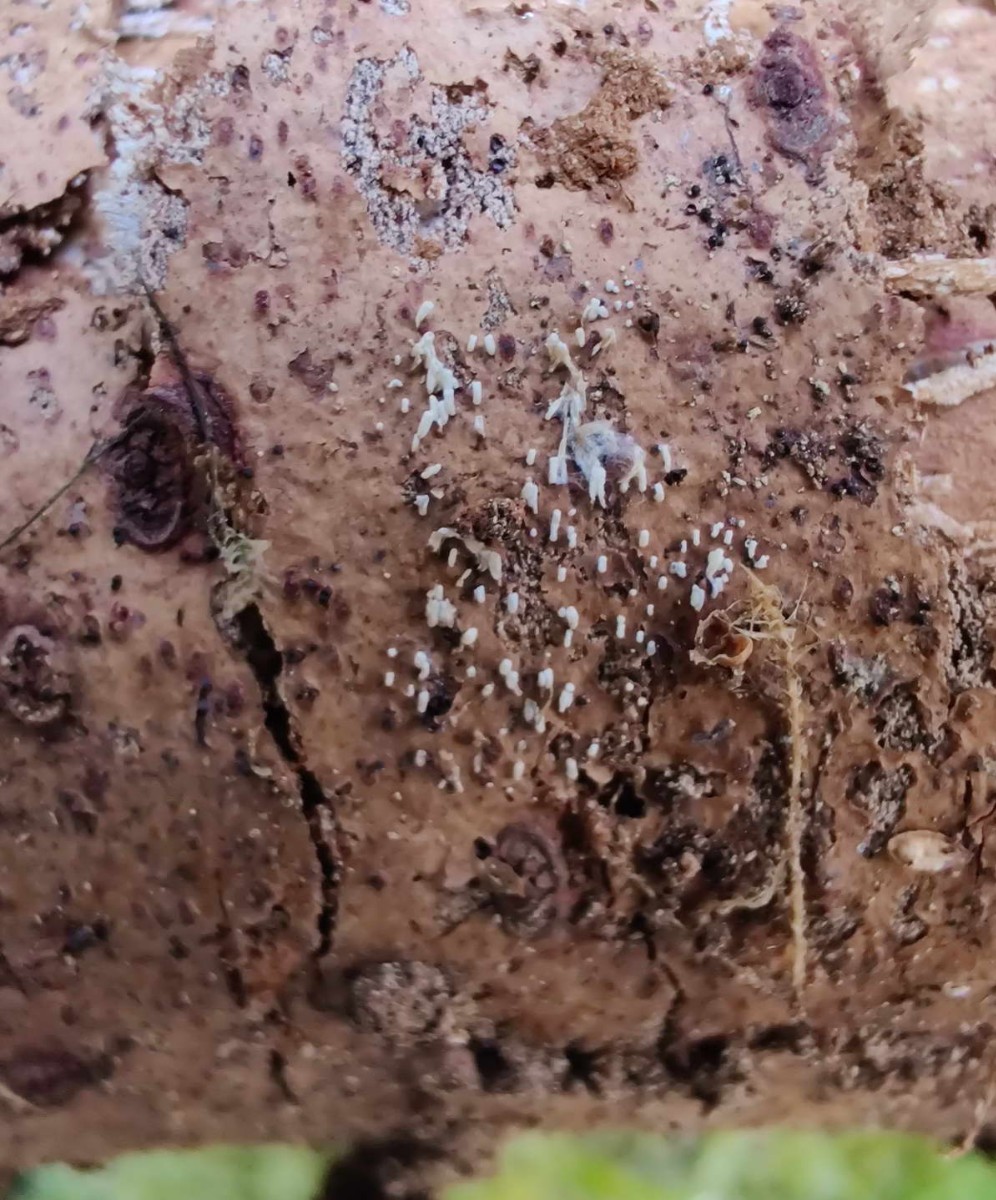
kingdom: Fungi
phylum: Basidiomycota
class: Agaricomycetes
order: Agaricales
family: Marasmiaceae
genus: Henningsomyces
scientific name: Henningsomyces candidus
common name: glat hængerør
